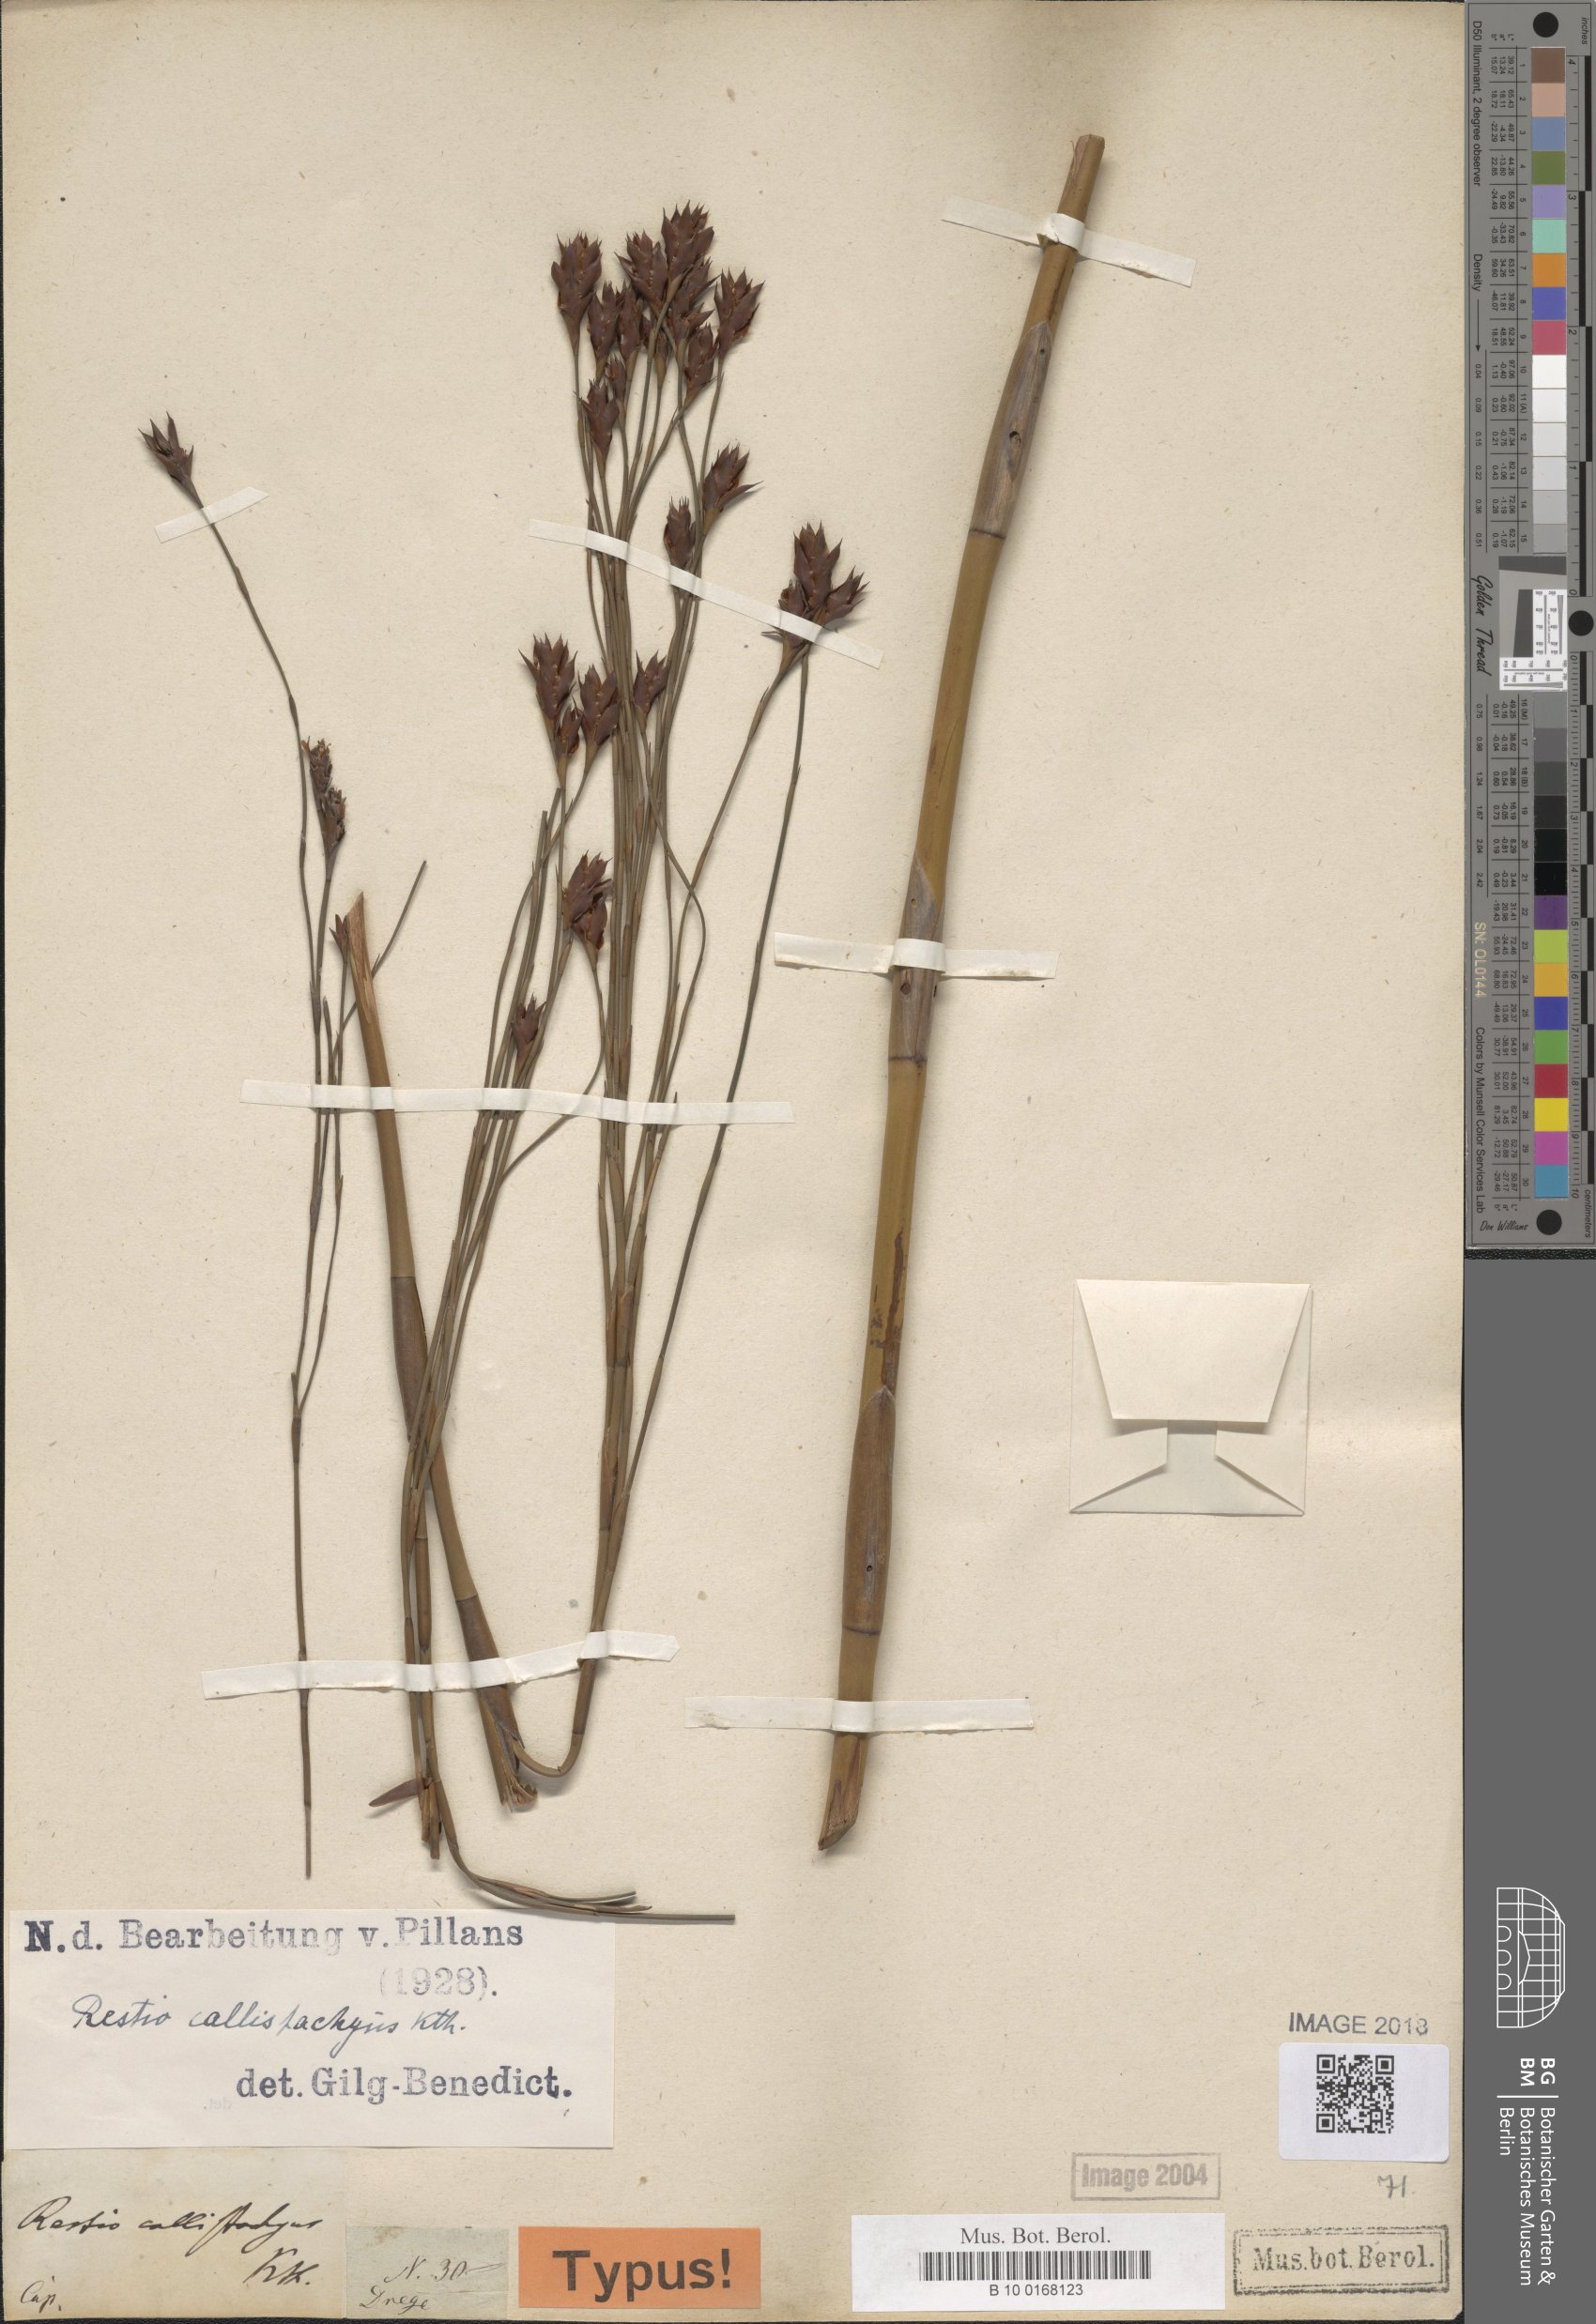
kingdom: Plantae
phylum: Tracheophyta
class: Liliopsida
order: Poales
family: Restionaceae
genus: Platycaulos
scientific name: Platycaulos callistachyus
